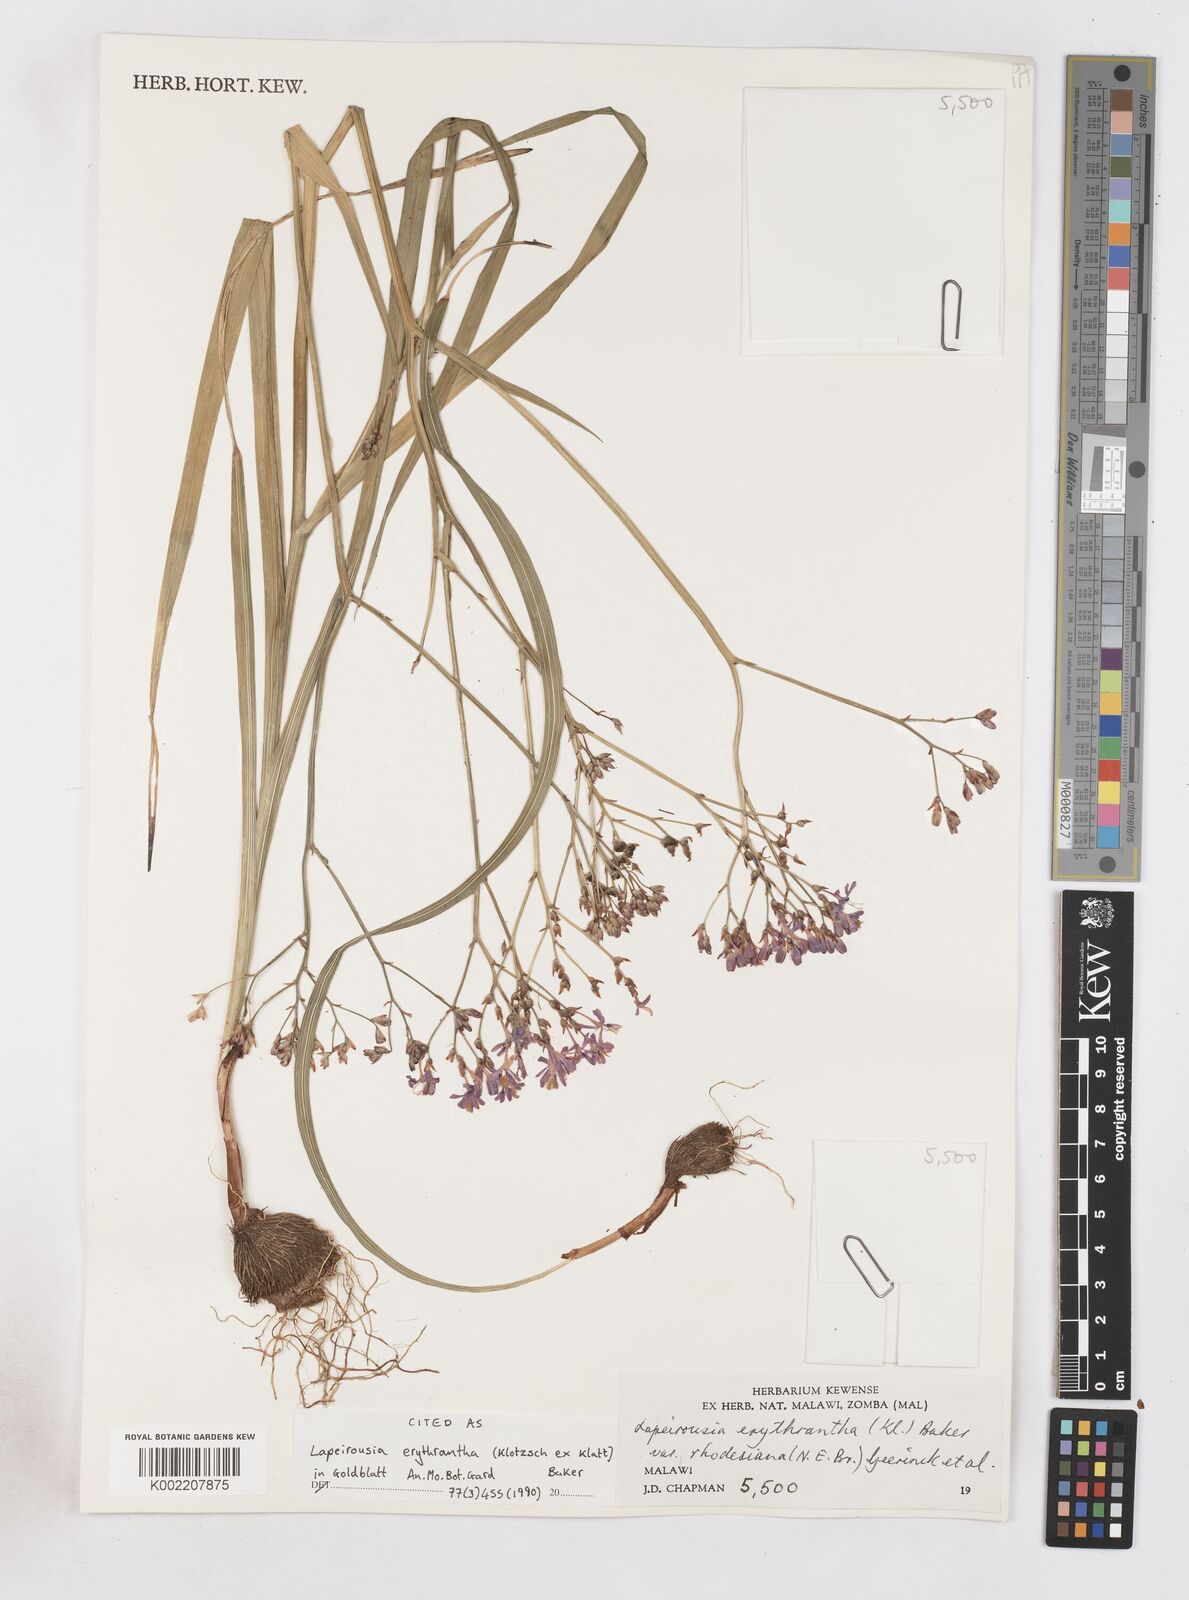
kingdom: Plantae
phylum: Tracheophyta
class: Liliopsida
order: Asparagales
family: Iridaceae
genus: Afrosolen
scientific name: Afrosolen erythranthus
